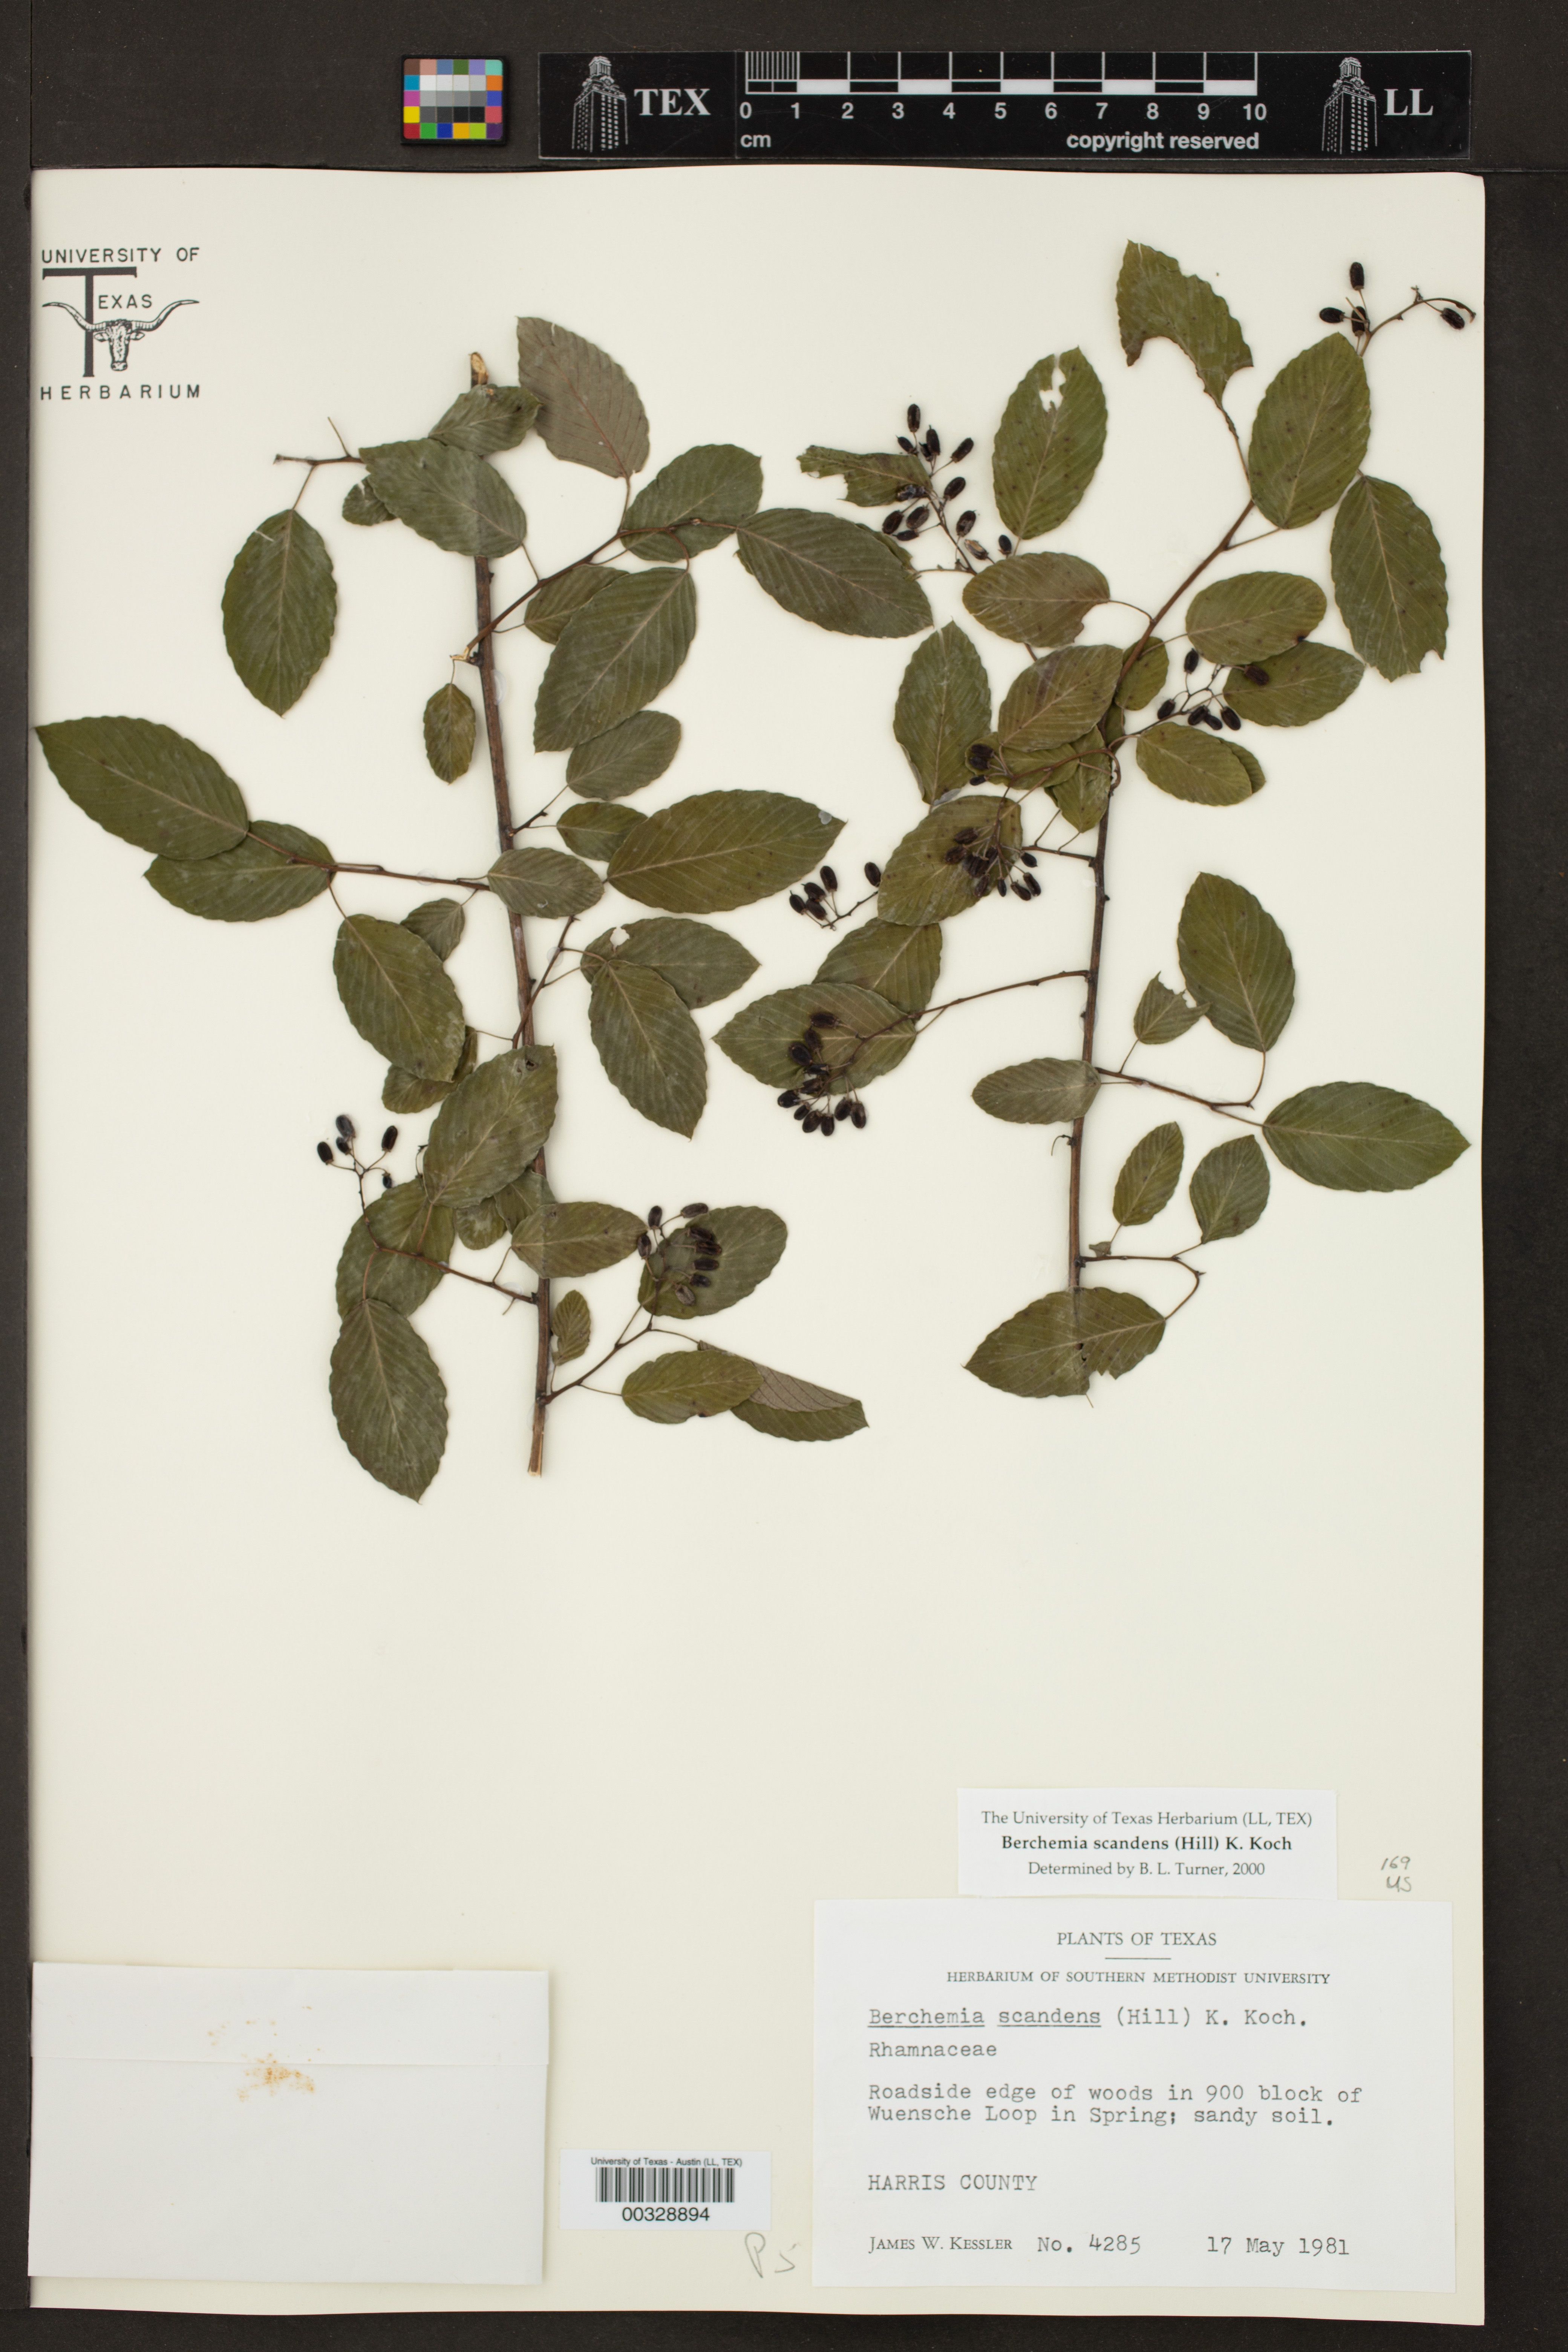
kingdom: Plantae
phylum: Tracheophyta
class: Magnoliopsida
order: Rosales
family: Rhamnaceae
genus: Berchemia
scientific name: Berchemia scandens
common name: Supplejack
